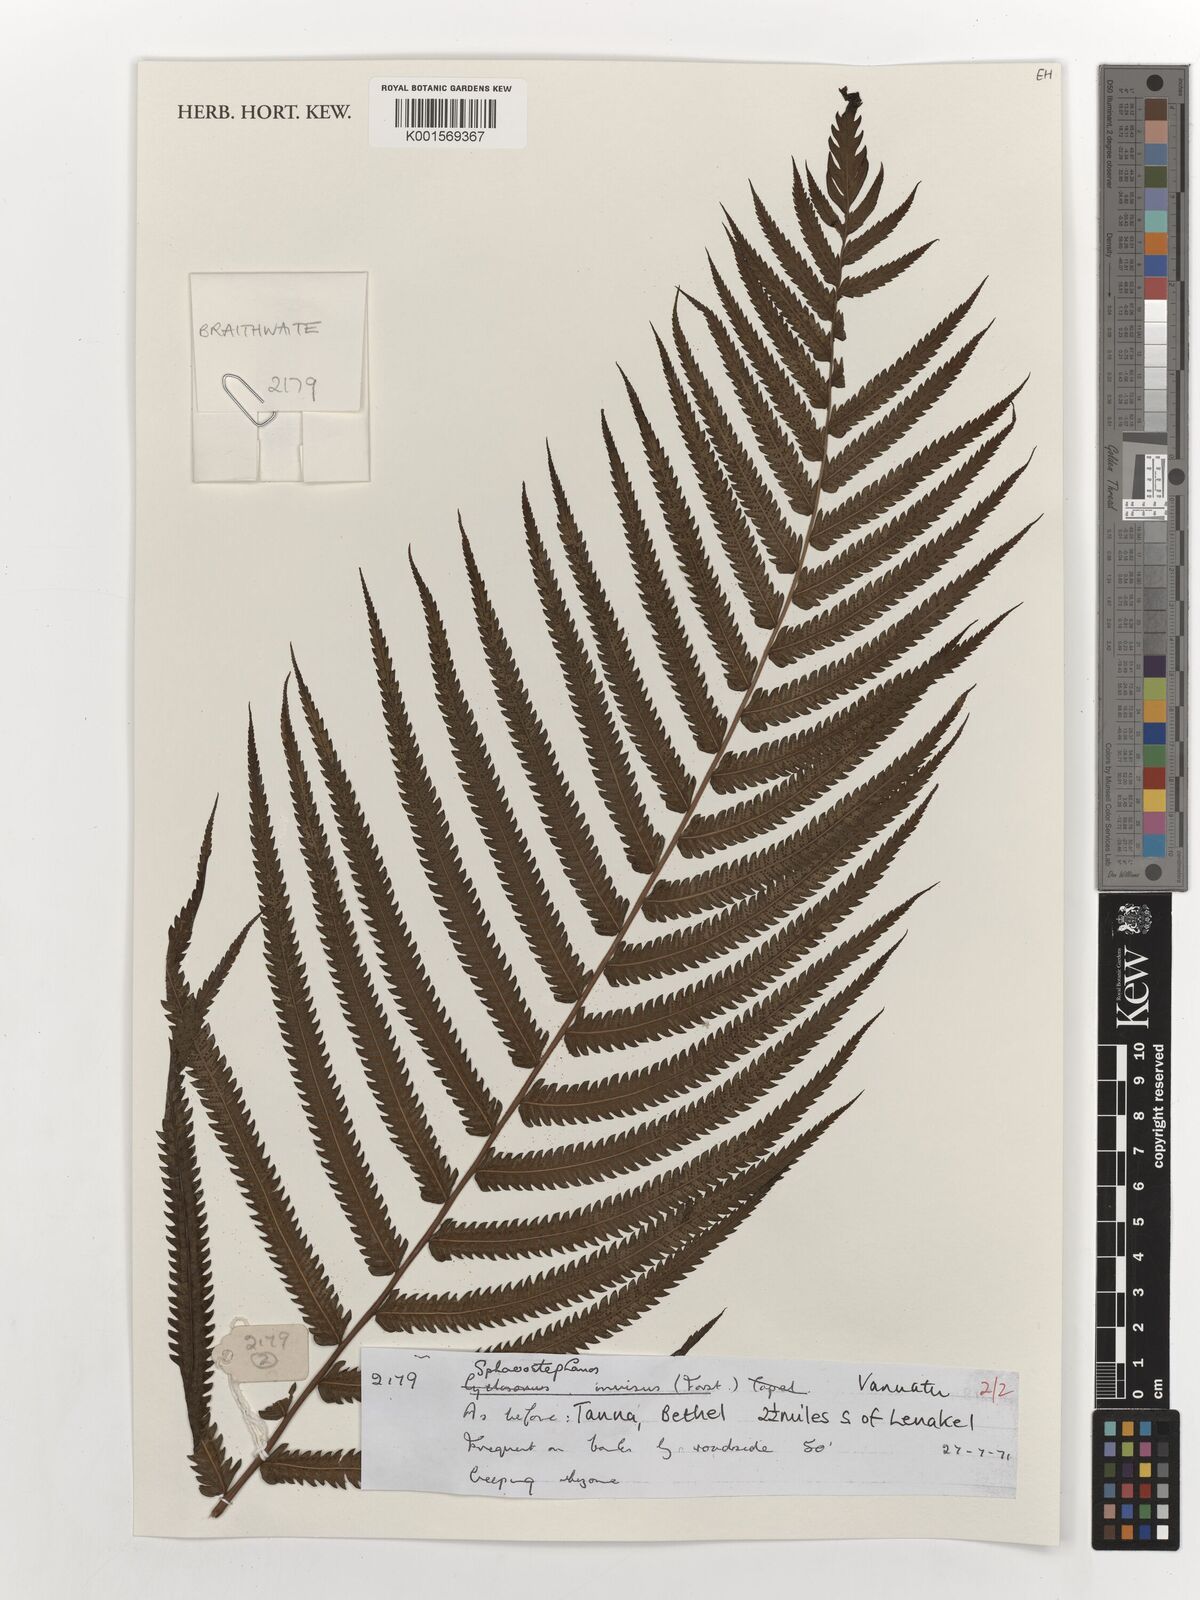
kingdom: Plantae
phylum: Tracheophyta
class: Polypodiopsida
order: Polypodiales
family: Thelypteridaceae
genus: Strophocaulon
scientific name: Strophocaulon invisum
